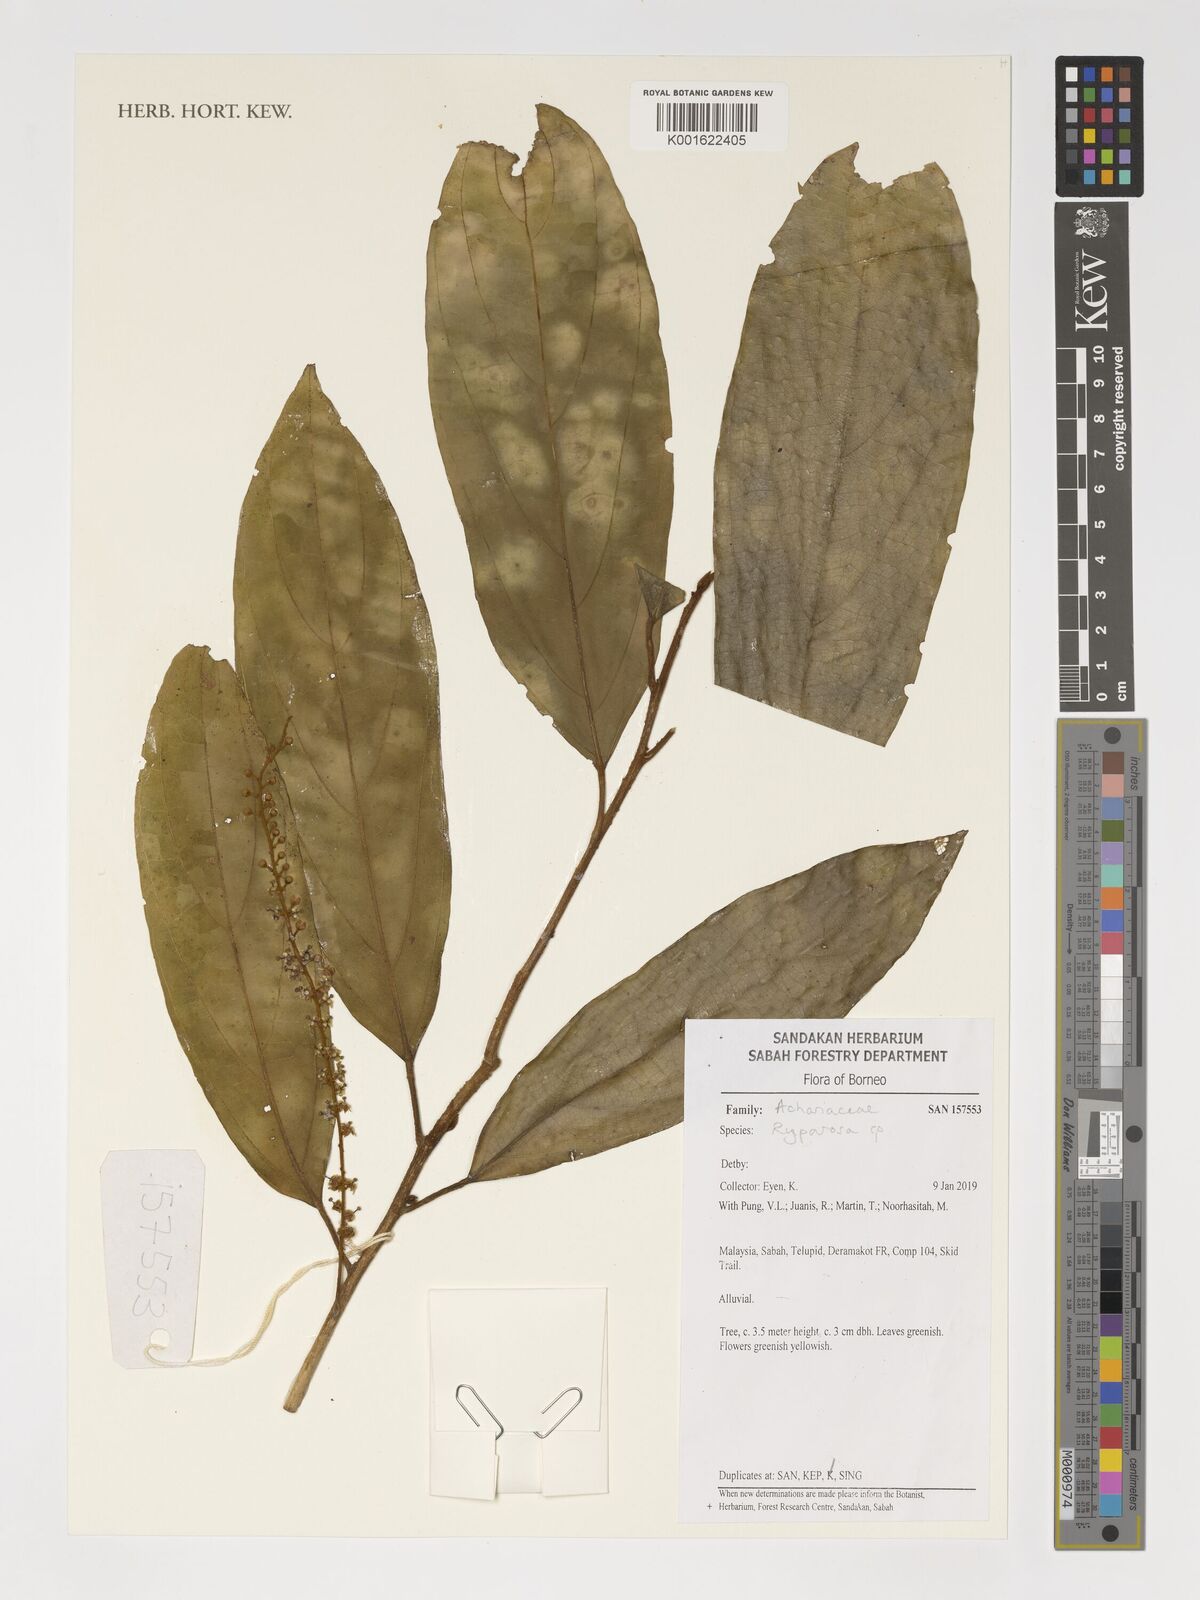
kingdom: Plantae
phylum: Tracheophyta
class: Magnoliopsida
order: Malpighiales
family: Achariaceae
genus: Ryparosa
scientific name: Ryparosa
